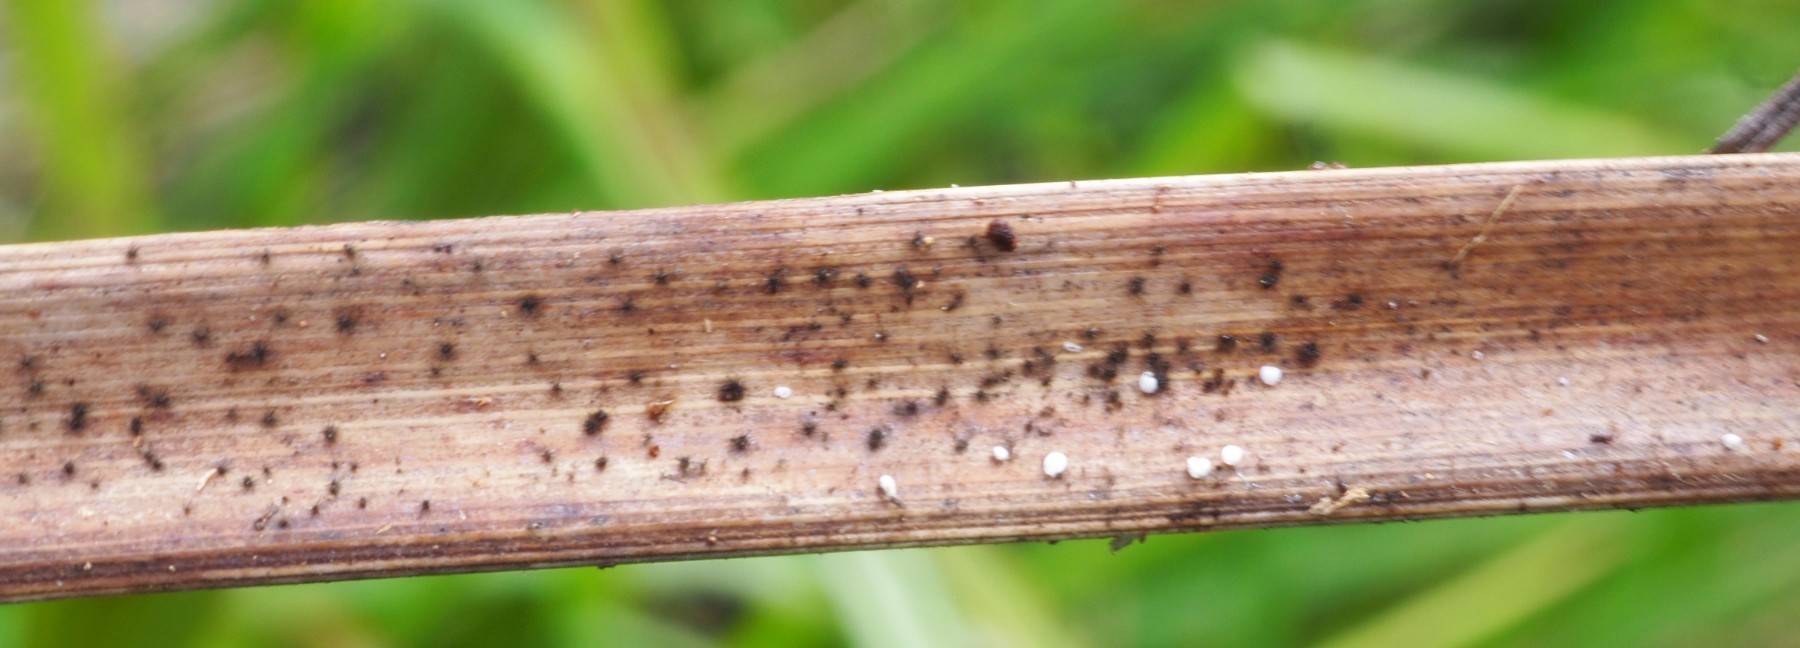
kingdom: Fungi
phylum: Ascomycota
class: Dothideomycetes
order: Tubeufiales
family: Tubeufiaceae
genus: Acanthophiobolus
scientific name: Acanthophiobolus helicosporus
